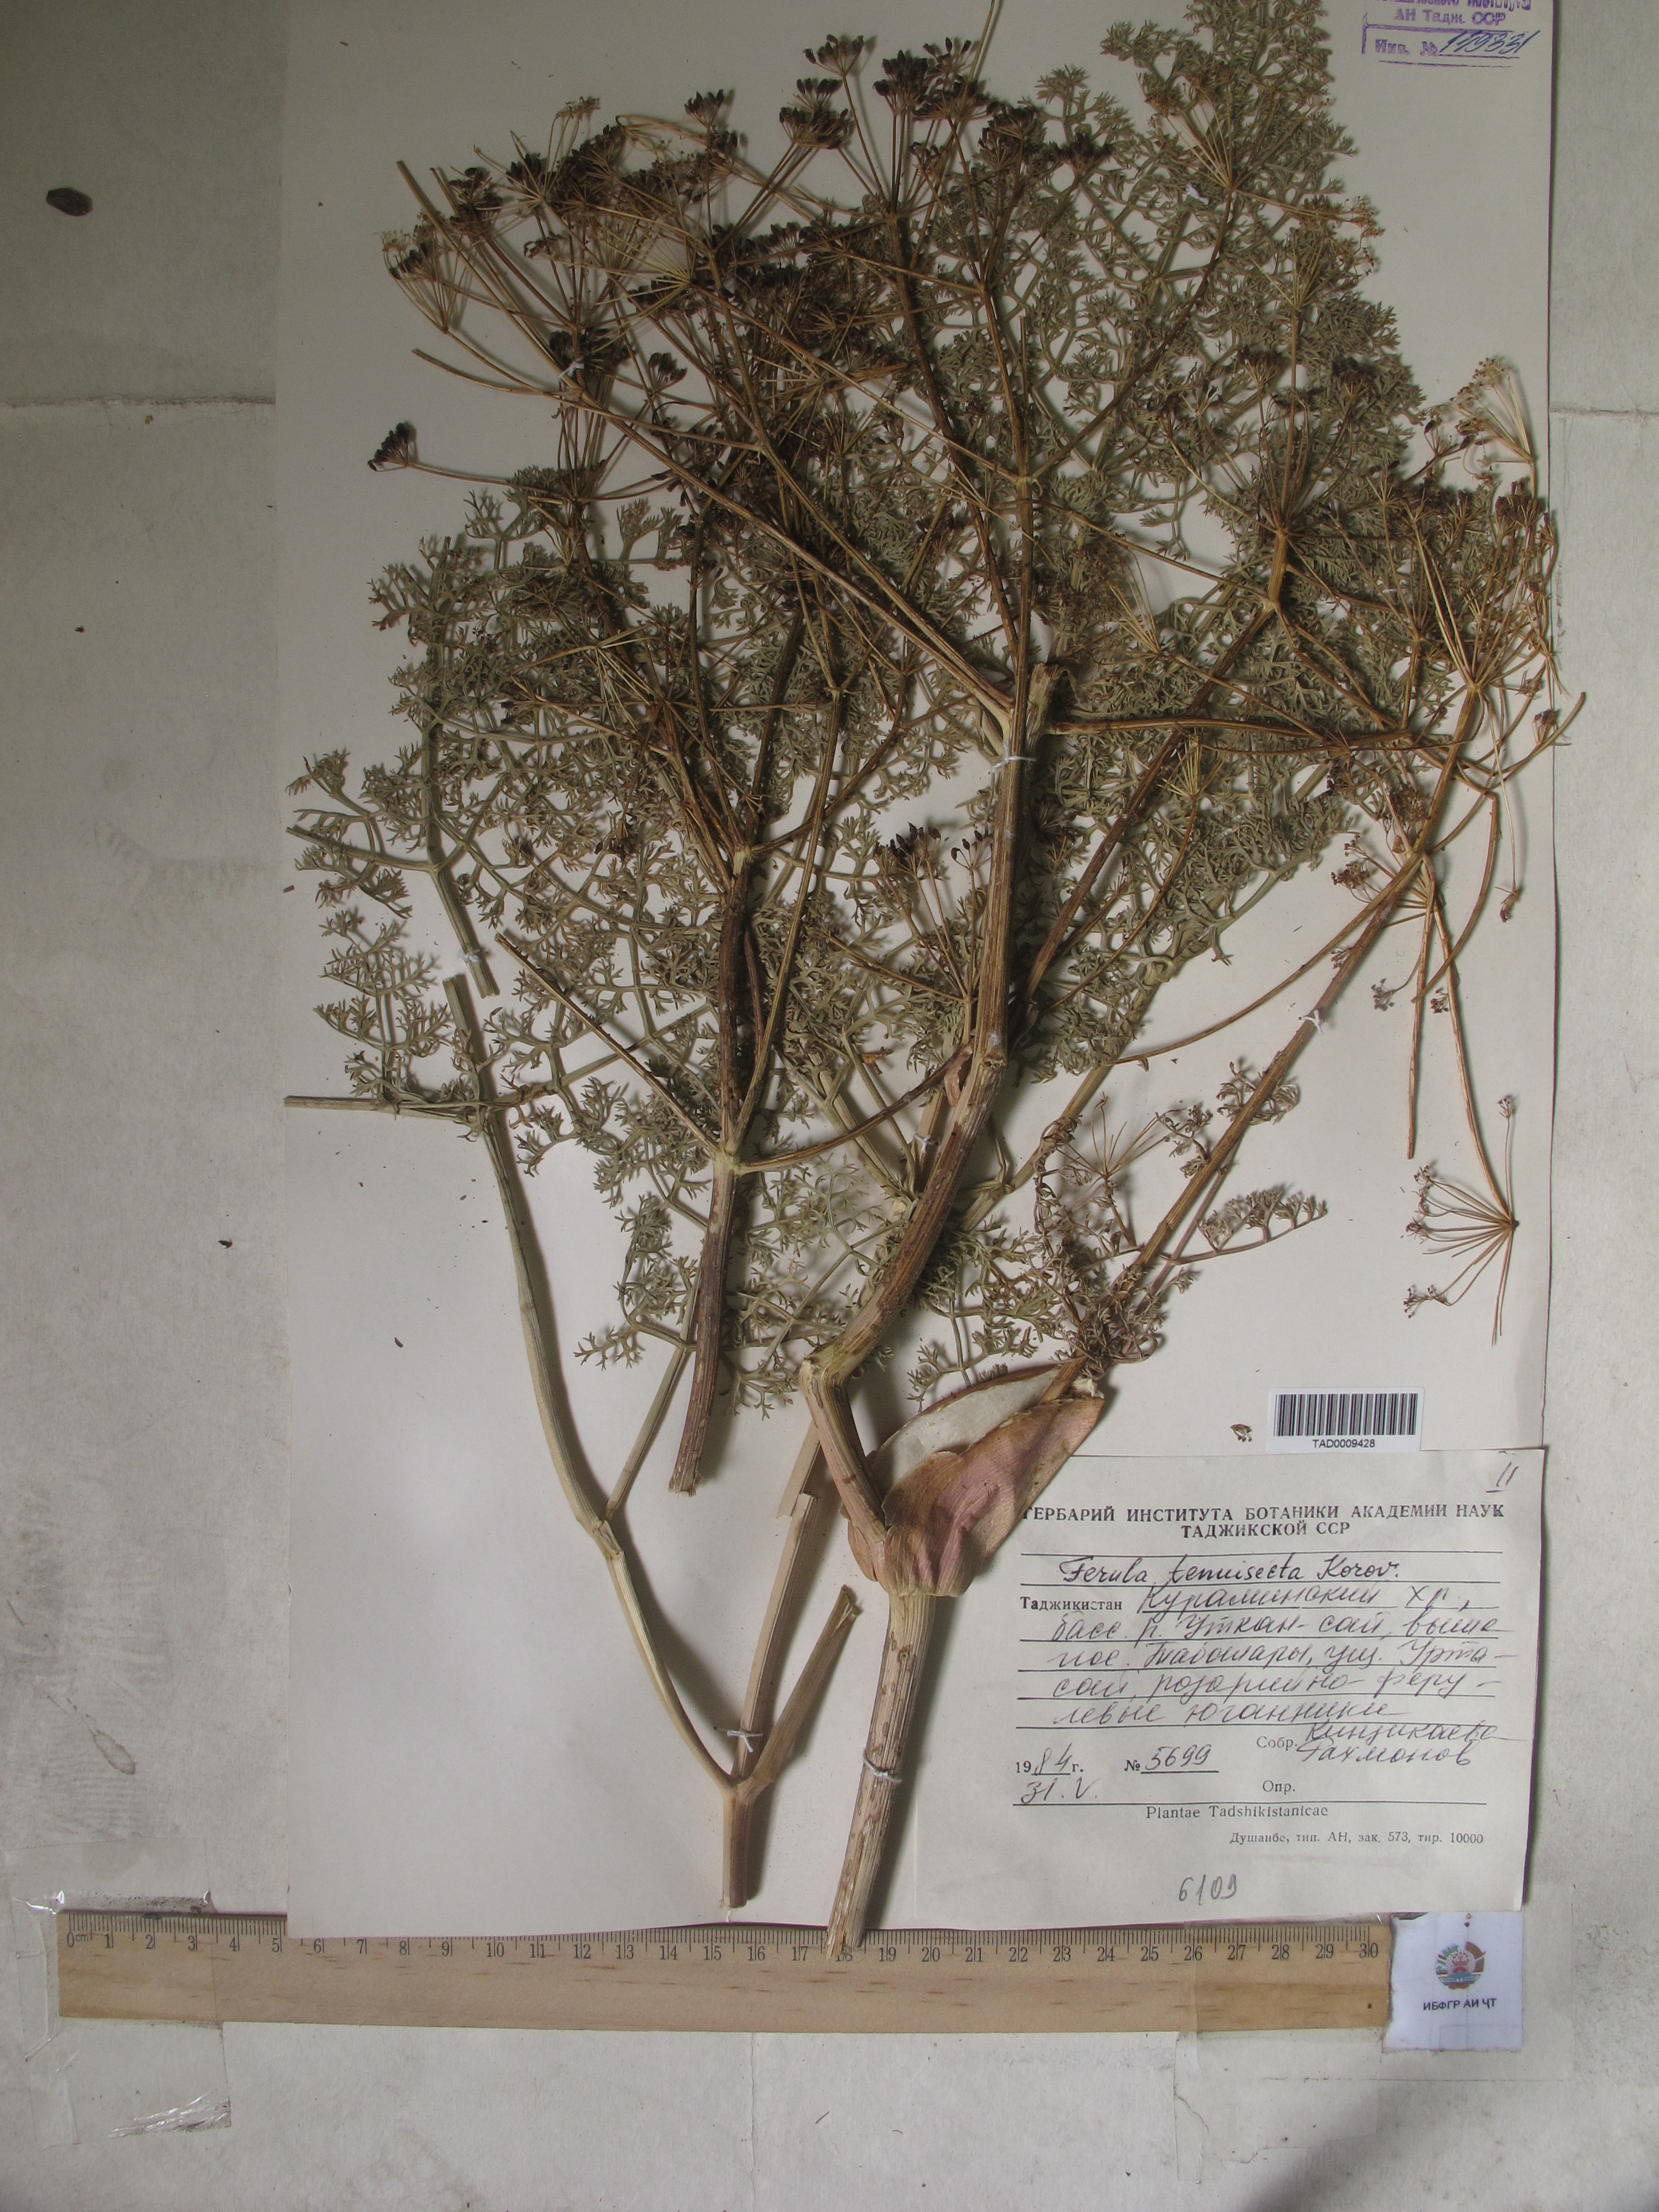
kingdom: Plantae
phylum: Tracheophyta
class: Magnoliopsida
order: Apiales
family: Apiaceae
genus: Ferula
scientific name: Ferula tenuisecta
